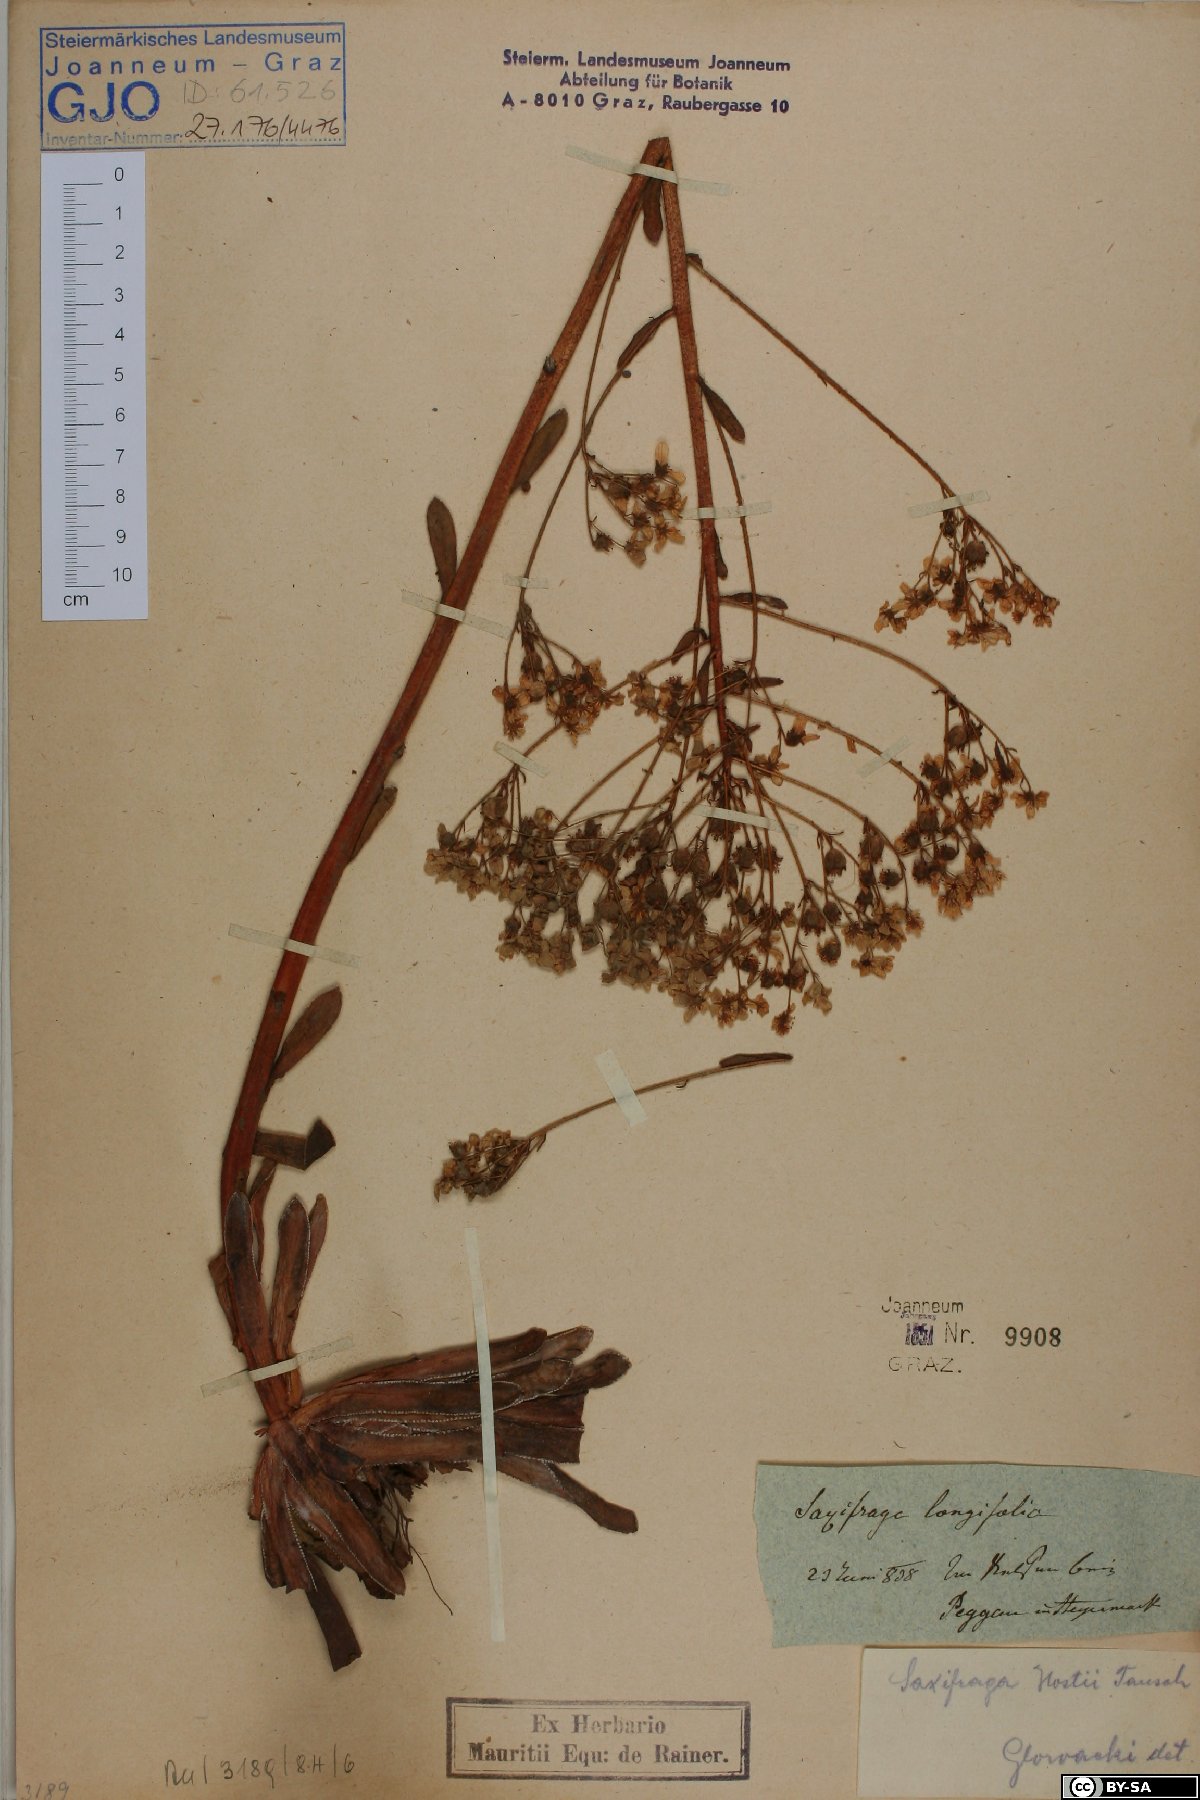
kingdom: Plantae
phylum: Tracheophyta
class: Magnoliopsida
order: Saxifragales
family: Saxifragaceae
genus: Saxifraga
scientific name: Saxifraga hostii
